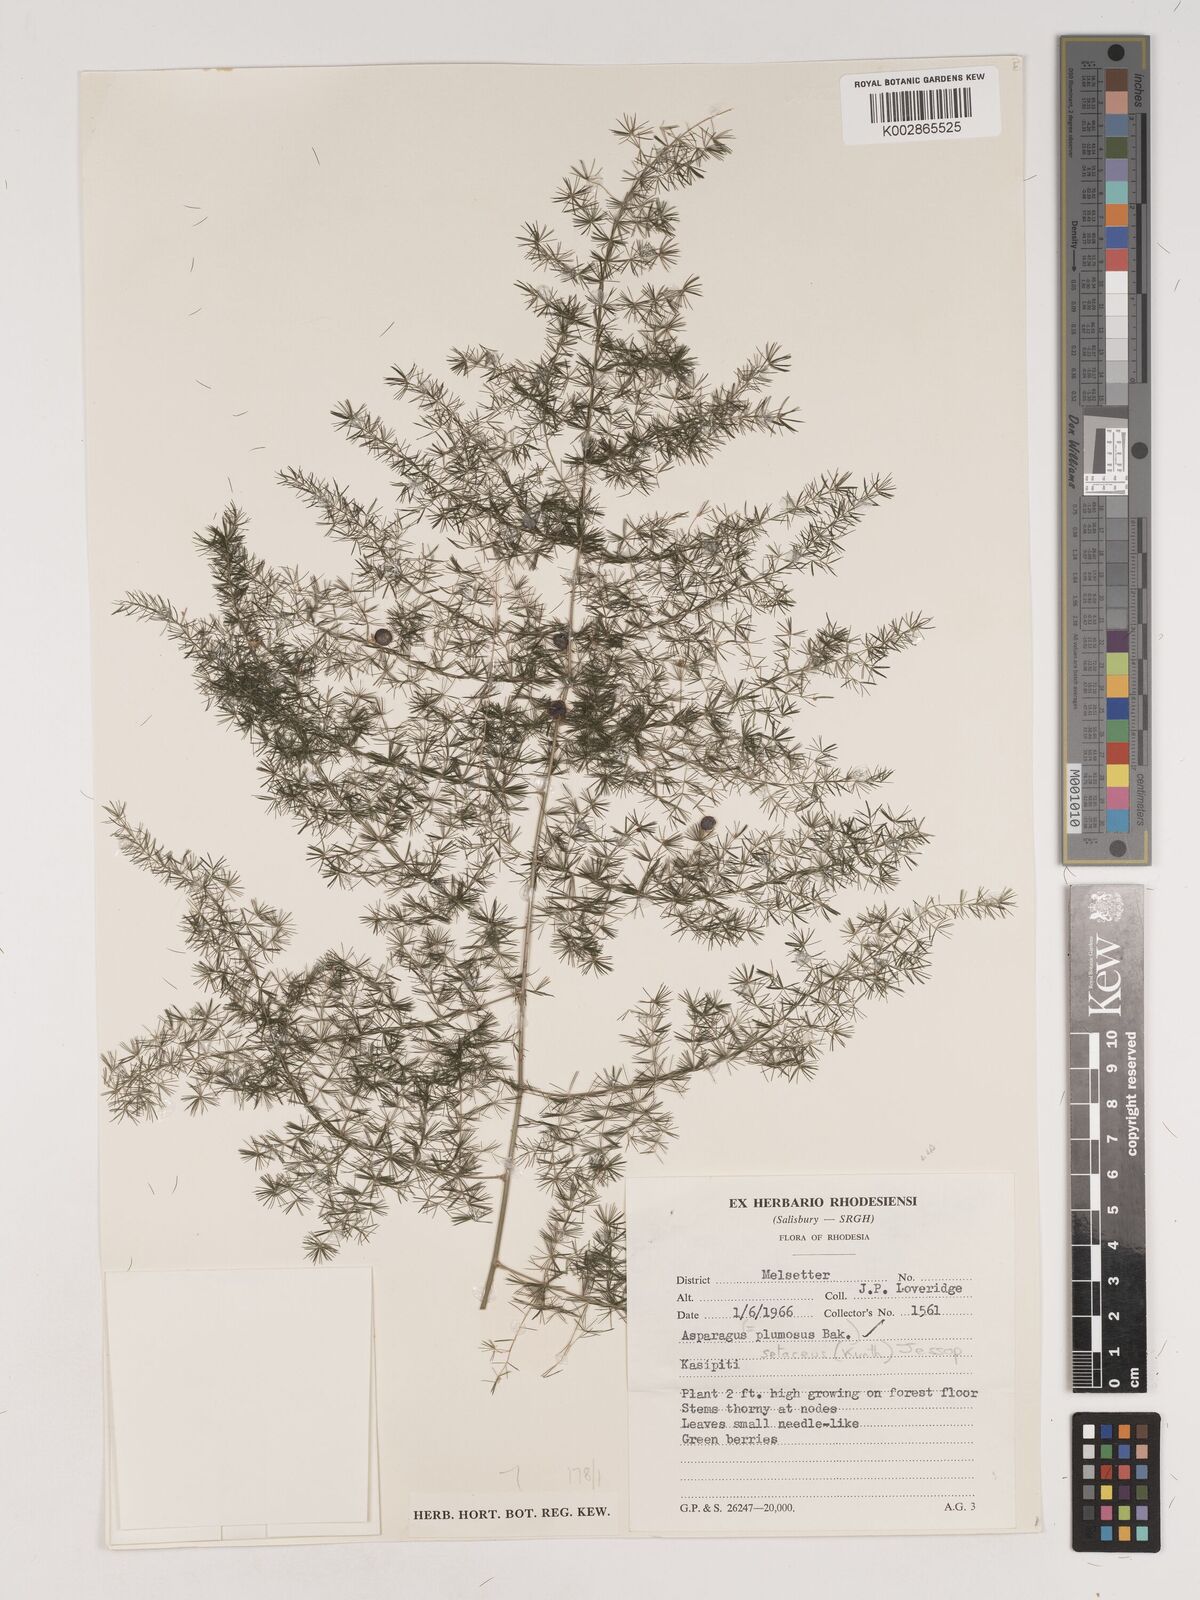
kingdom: Plantae
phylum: Tracheophyta
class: Liliopsida
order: Asparagales
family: Asparagaceae
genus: Asparagus
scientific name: Asparagus setaceus
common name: Common asparagus fern
